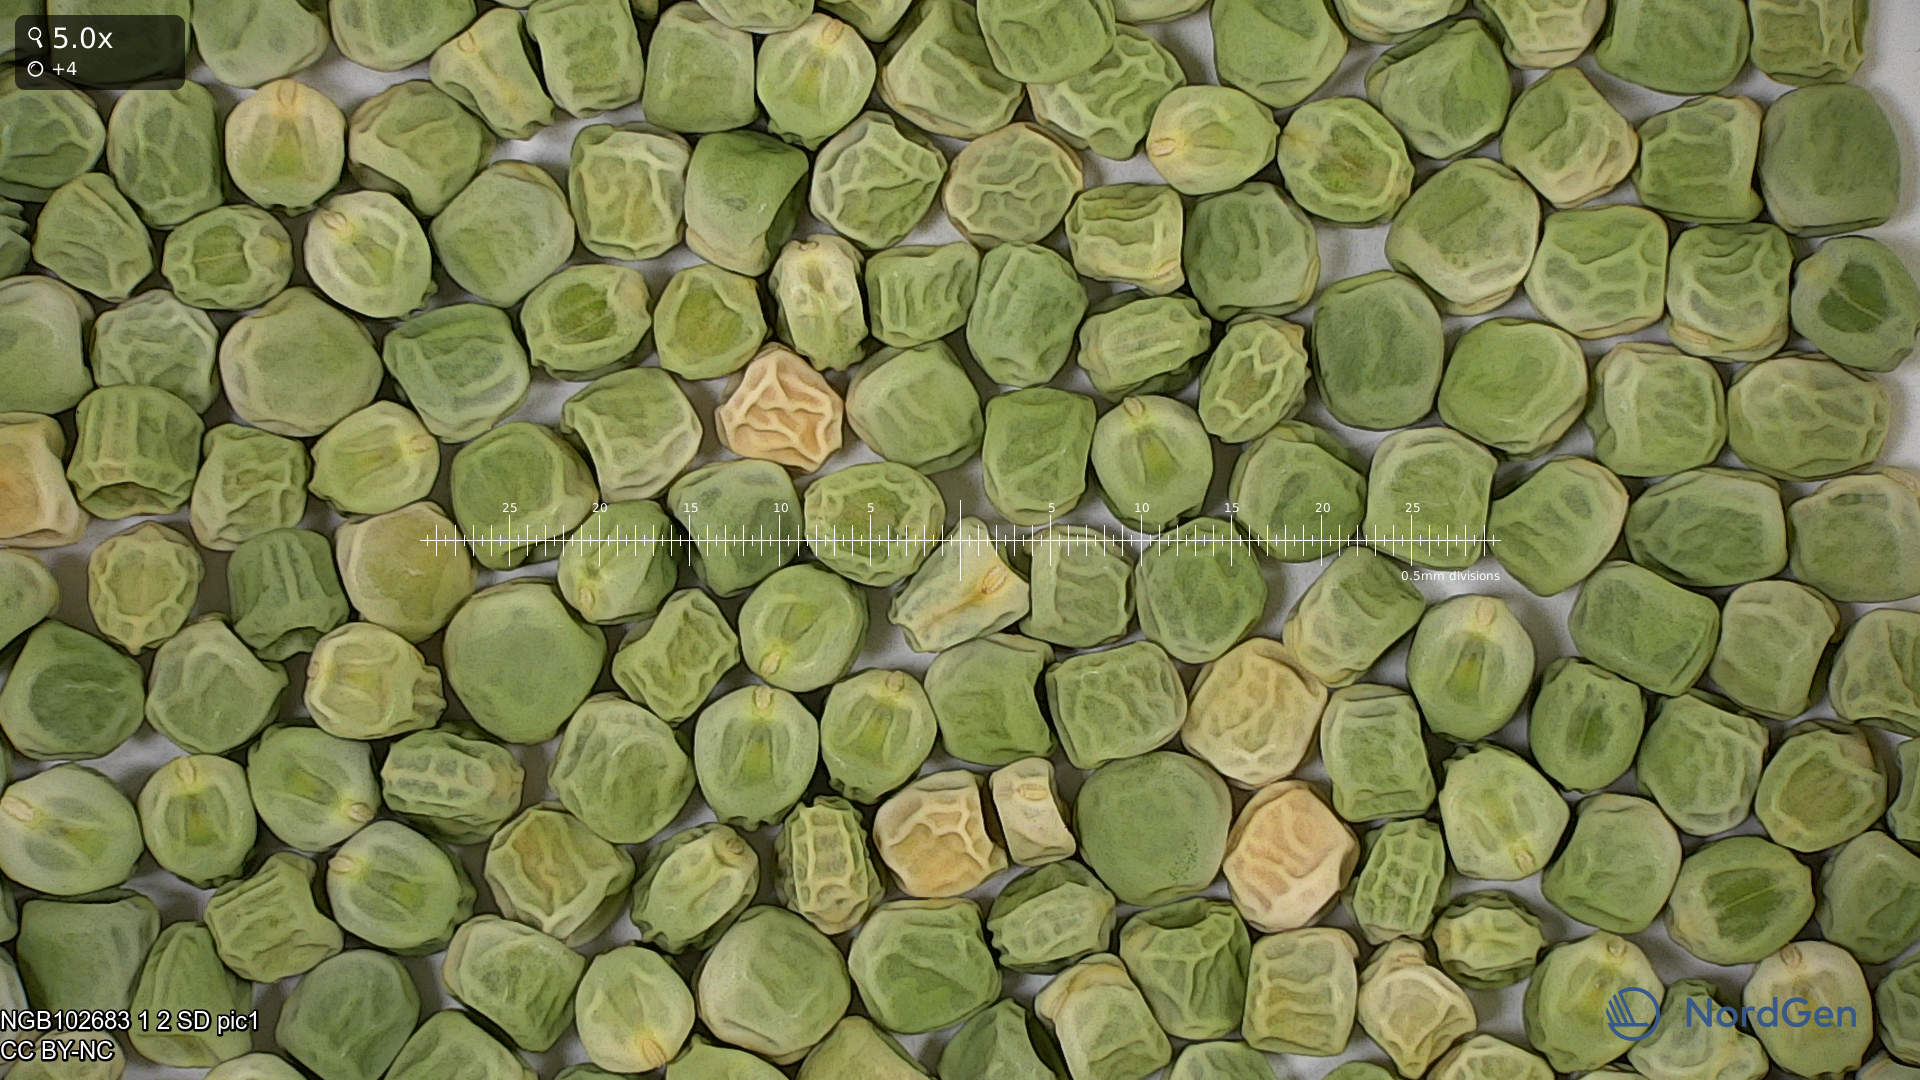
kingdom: Plantae
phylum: Tracheophyta
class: Magnoliopsida
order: Fabales
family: Fabaceae
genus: Lathyrus
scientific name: Lathyrus oleraceus
